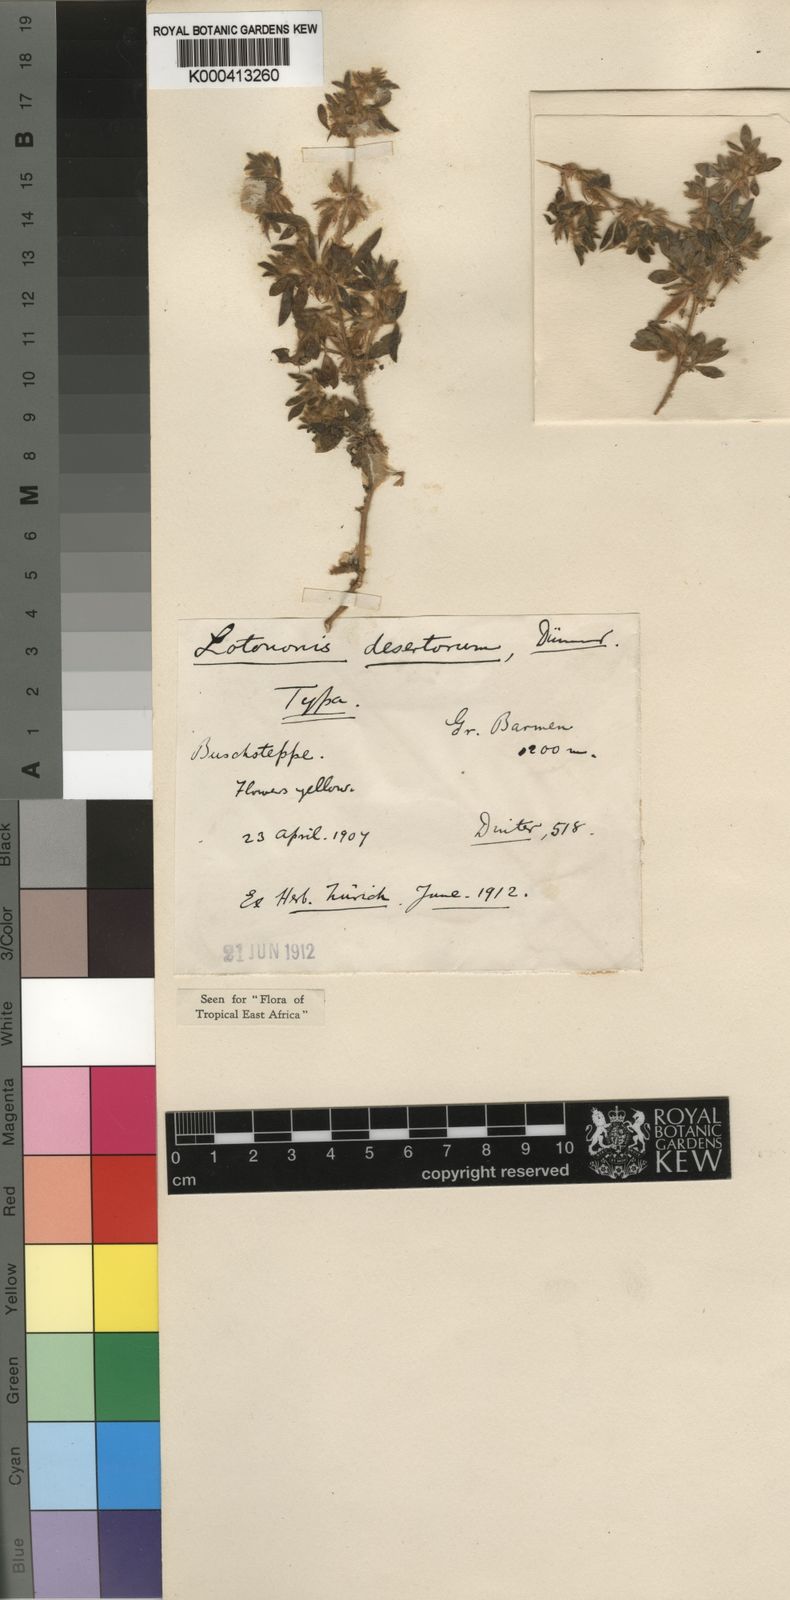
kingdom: Plantae
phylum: Tracheophyta
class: Magnoliopsida
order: Fabales
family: Fabaceae
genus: Rothia
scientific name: Rothia hirsuta
